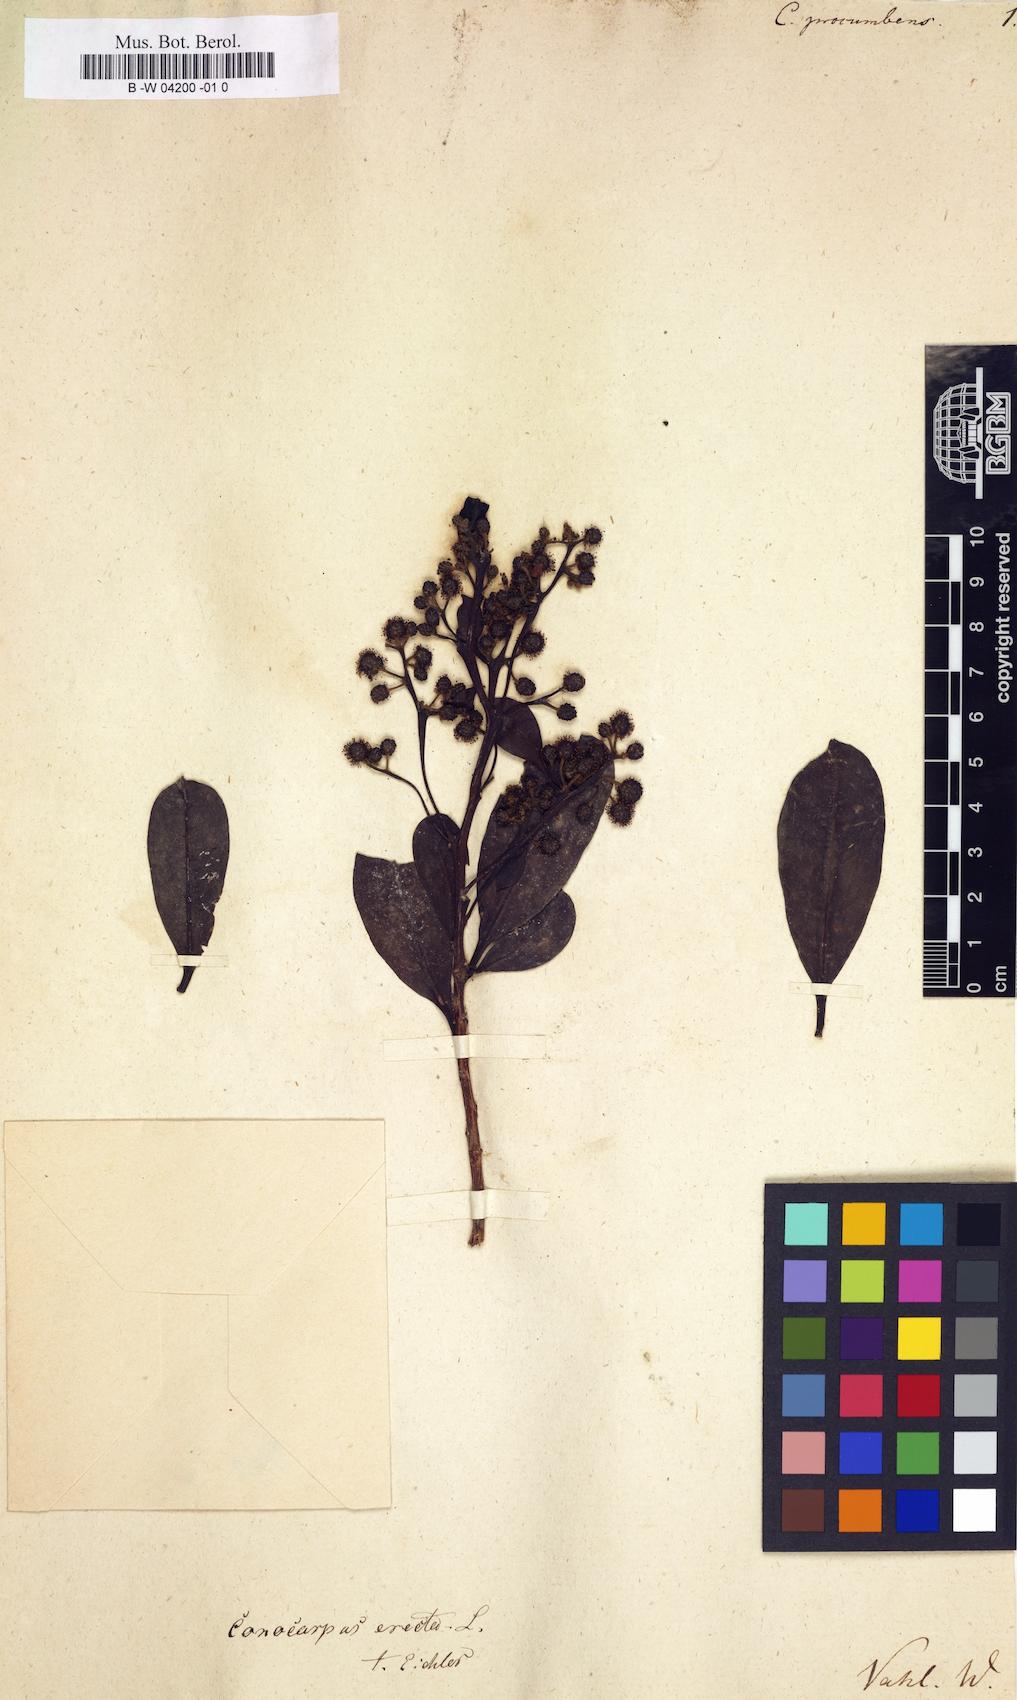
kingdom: Plantae
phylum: Tracheophyta
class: Magnoliopsida
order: Myrtales
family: Combretaceae
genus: Conocarpus
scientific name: Conocarpus erectus
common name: Button mangrove
